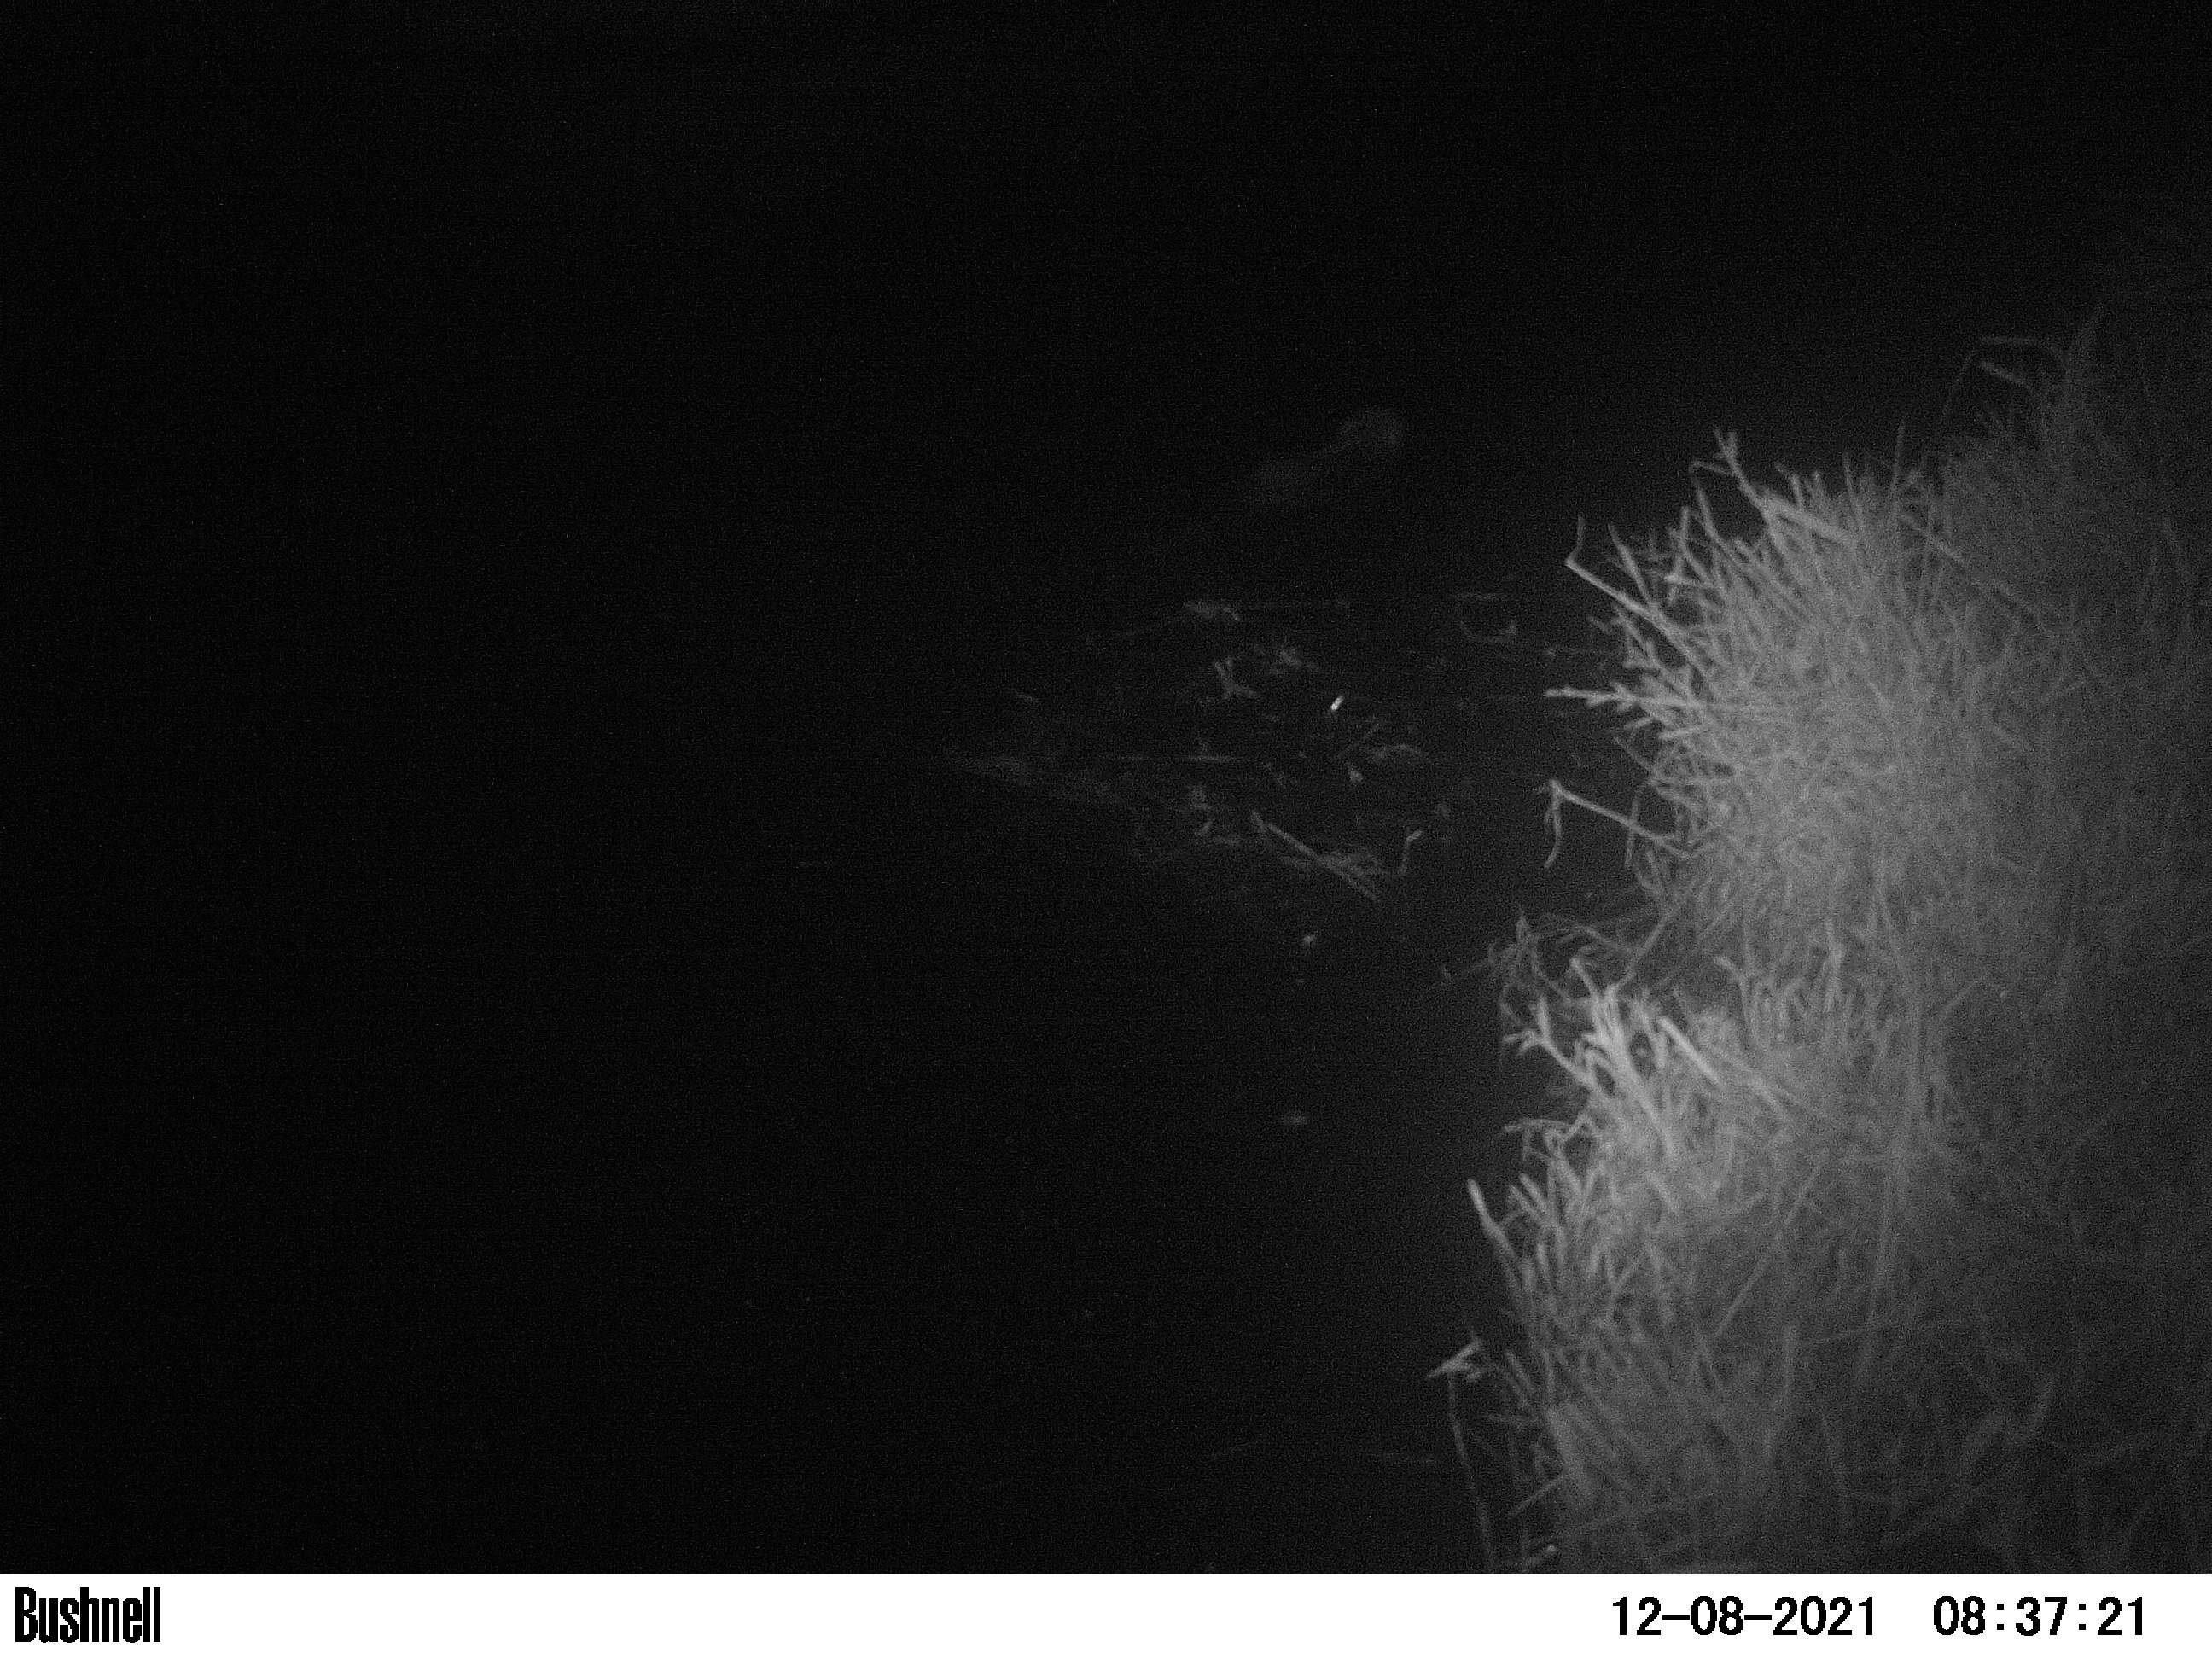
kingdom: Animalia
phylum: Chordata
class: Mammalia
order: Rodentia
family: Muridae
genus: Rattus
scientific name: Rattus norvegicus
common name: Brown rat
